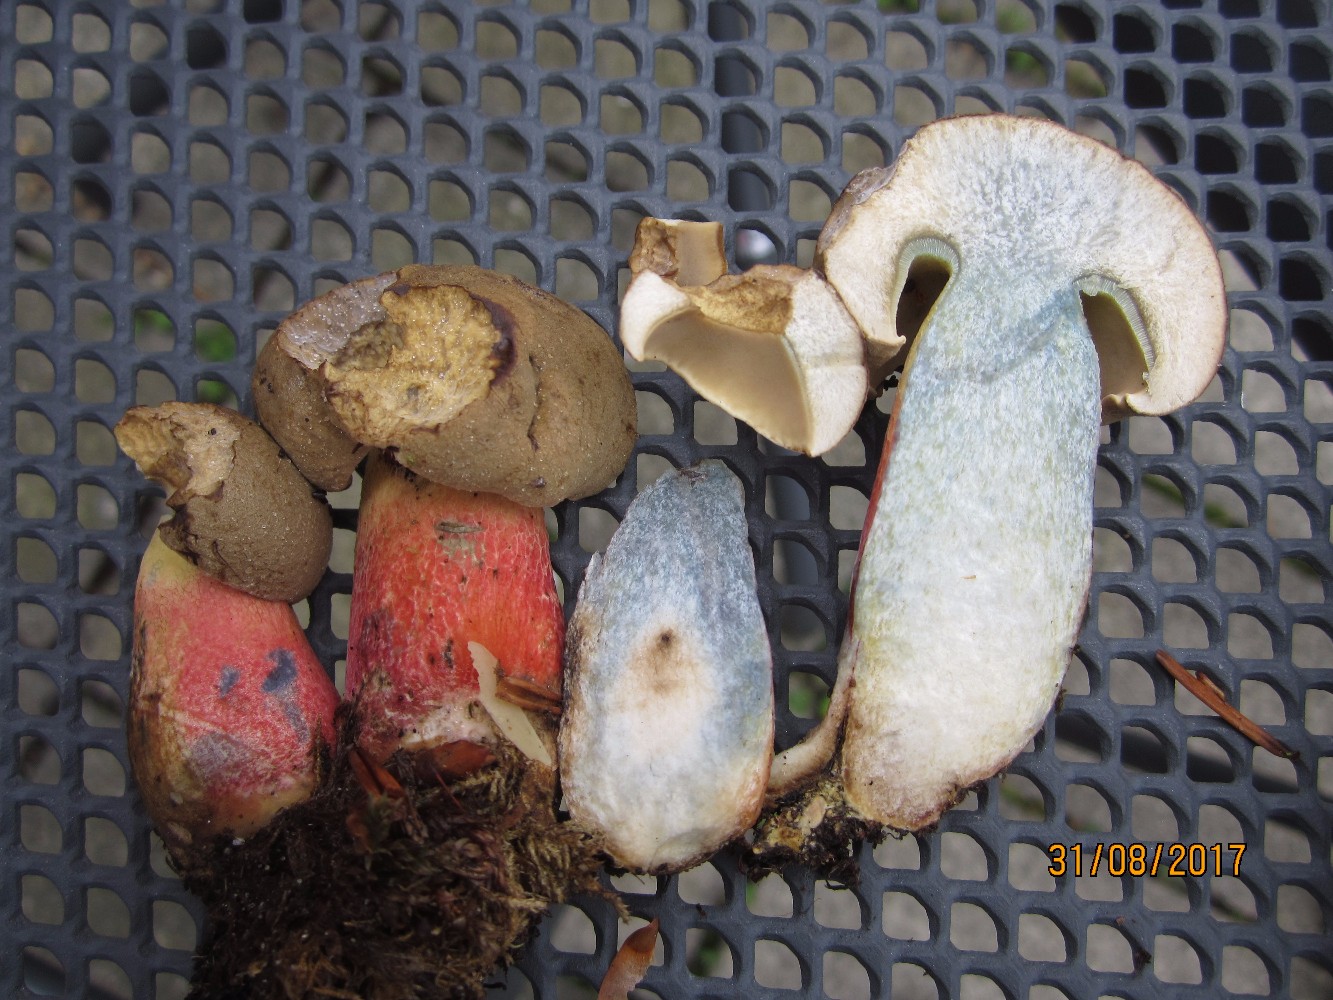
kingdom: Fungi
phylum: Basidiomycota
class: Agaricomycetes
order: Boletales
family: Boletaceae
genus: Caloboletus
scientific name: Caloboletus calopus
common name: skønfodet rørhat
